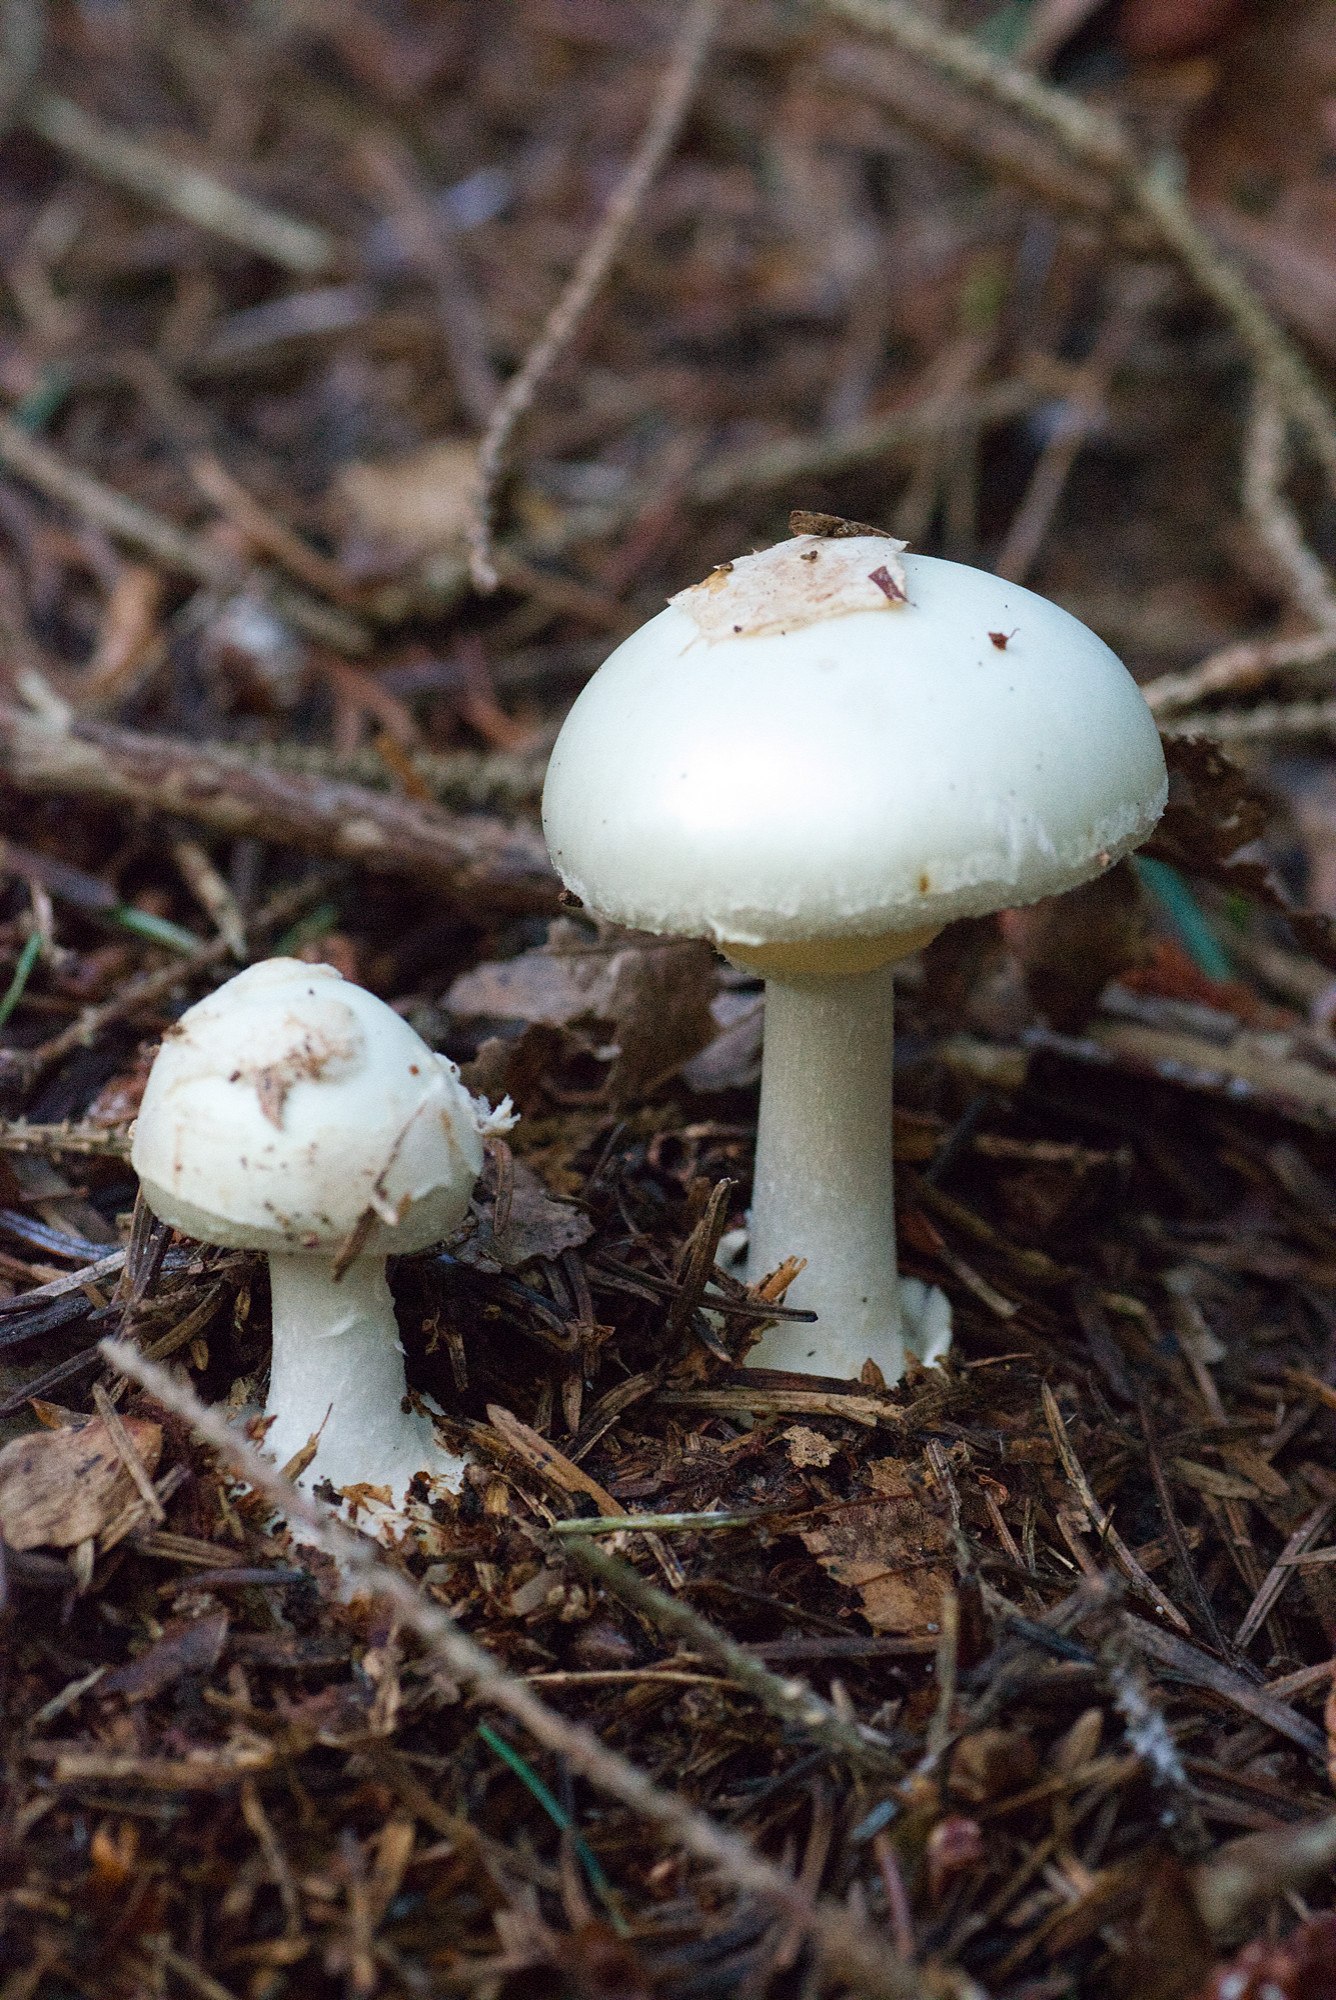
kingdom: Fungi
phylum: Basidiomycota
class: Agaricomycetes
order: Agaricales
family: Amanitaceae
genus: Amanita
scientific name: Amanita citrina
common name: kugleknoldet fluesvamp
